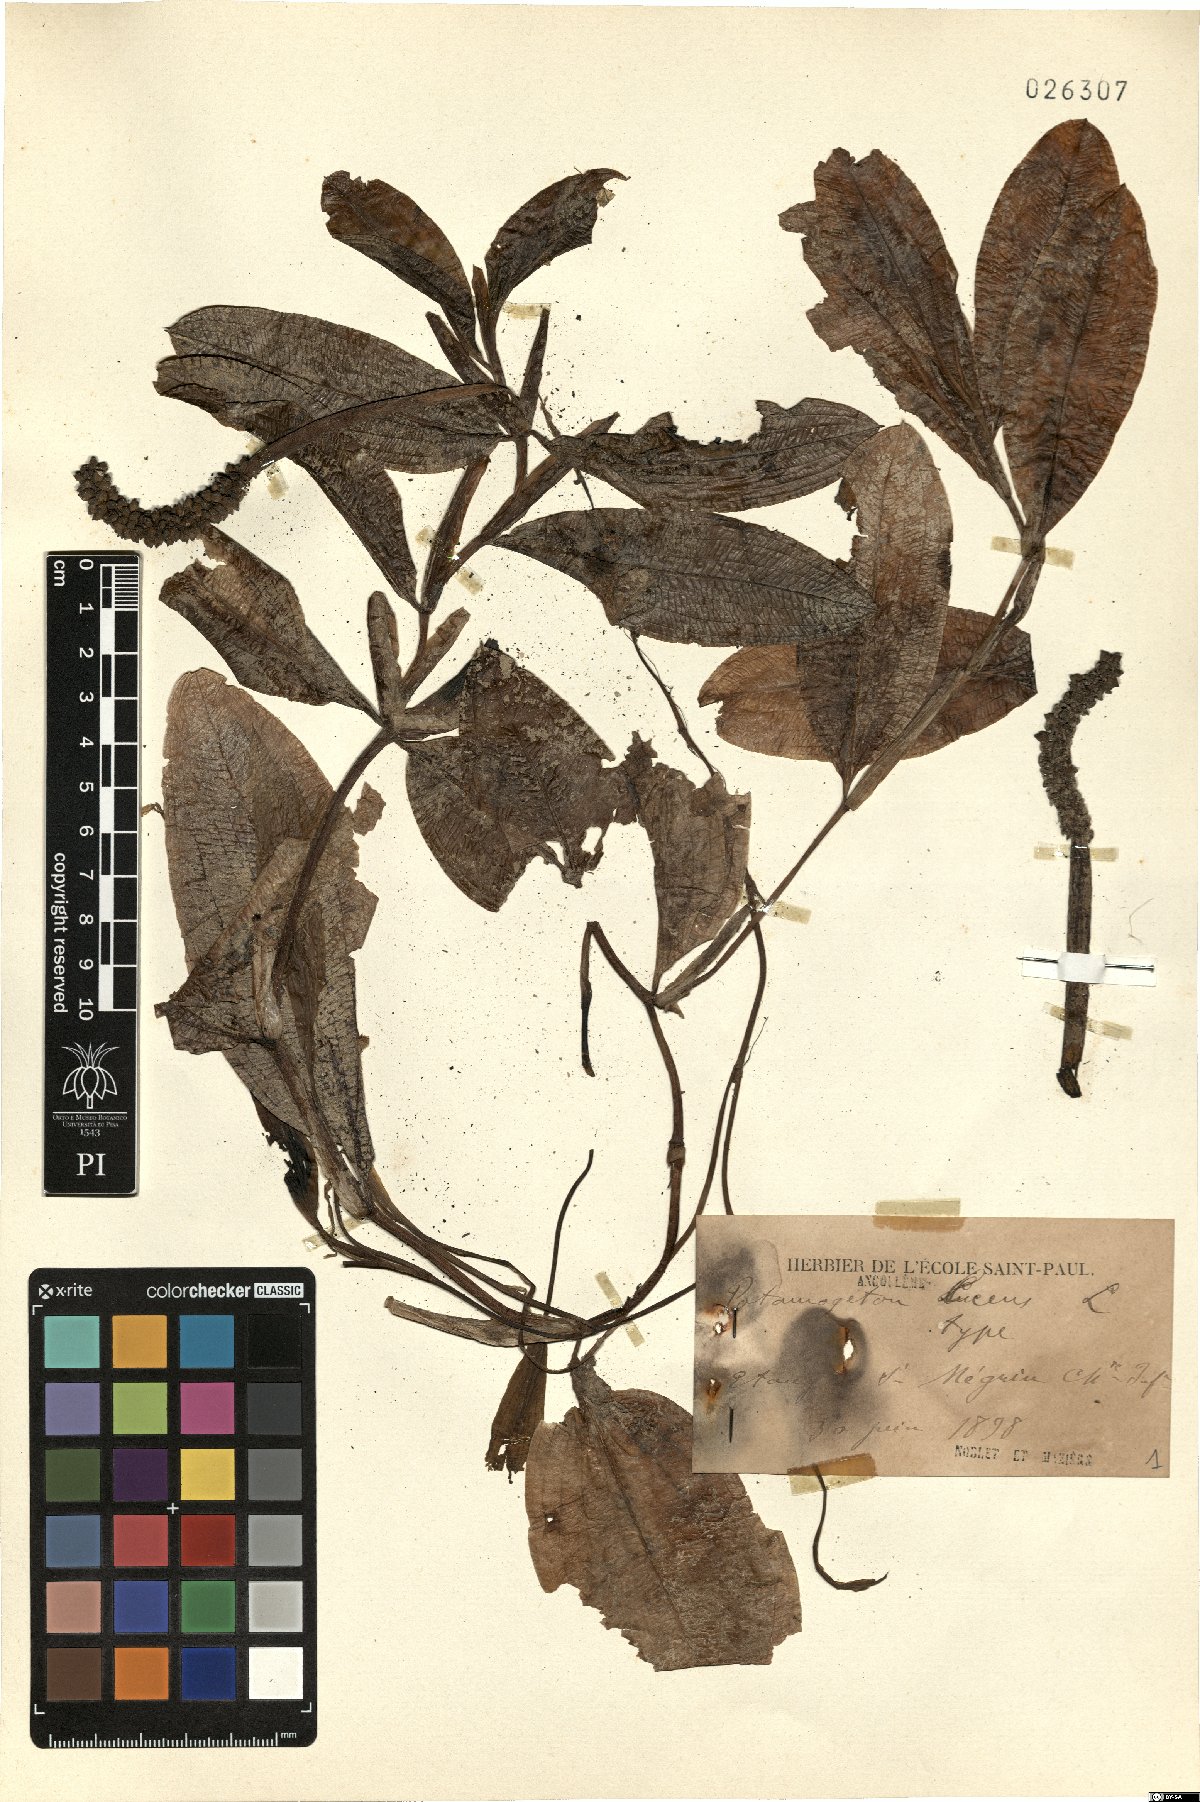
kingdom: Plantae
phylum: Tracheophyta
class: Liliopsida
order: Alismatales
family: Potamogetonaceae
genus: Potamogeton
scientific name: Potamogeton lucens
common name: Shining pondweed
